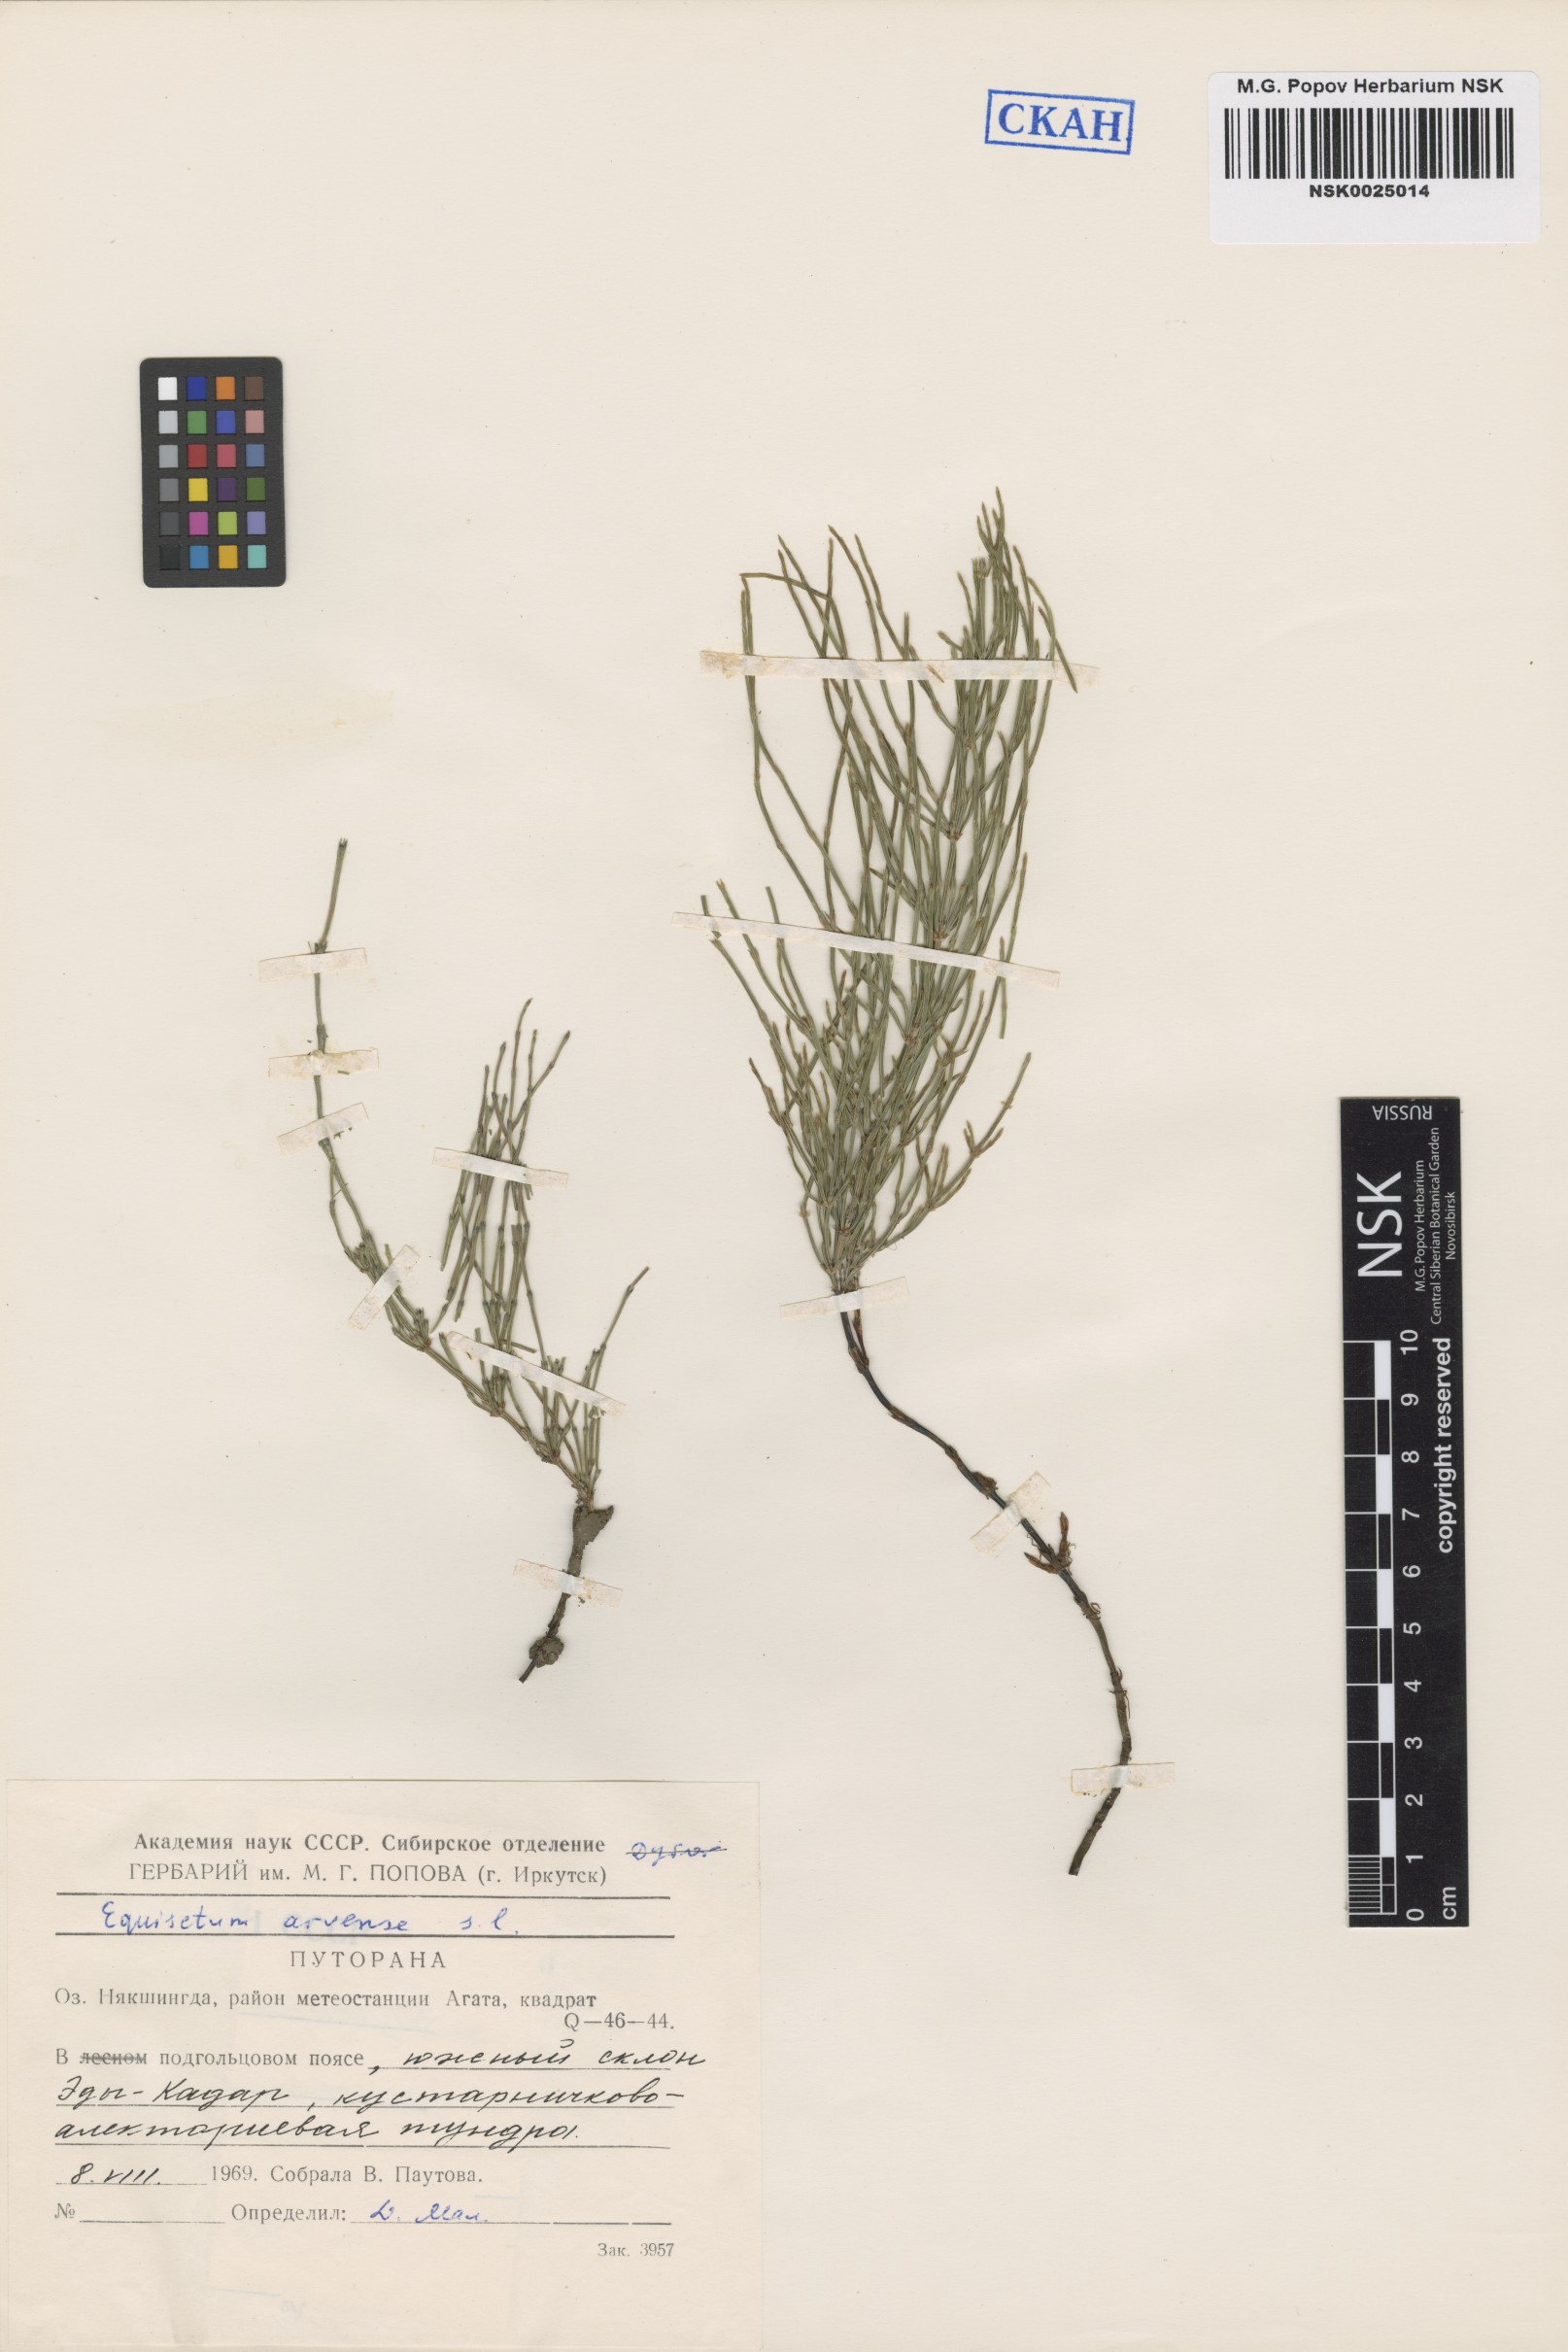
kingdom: Plantae
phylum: Tracheophyta
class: Polypodiopsida
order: Equisetales
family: Equisetaceae
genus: Equisetum
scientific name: Equisetum arvense
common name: Field horsetail
